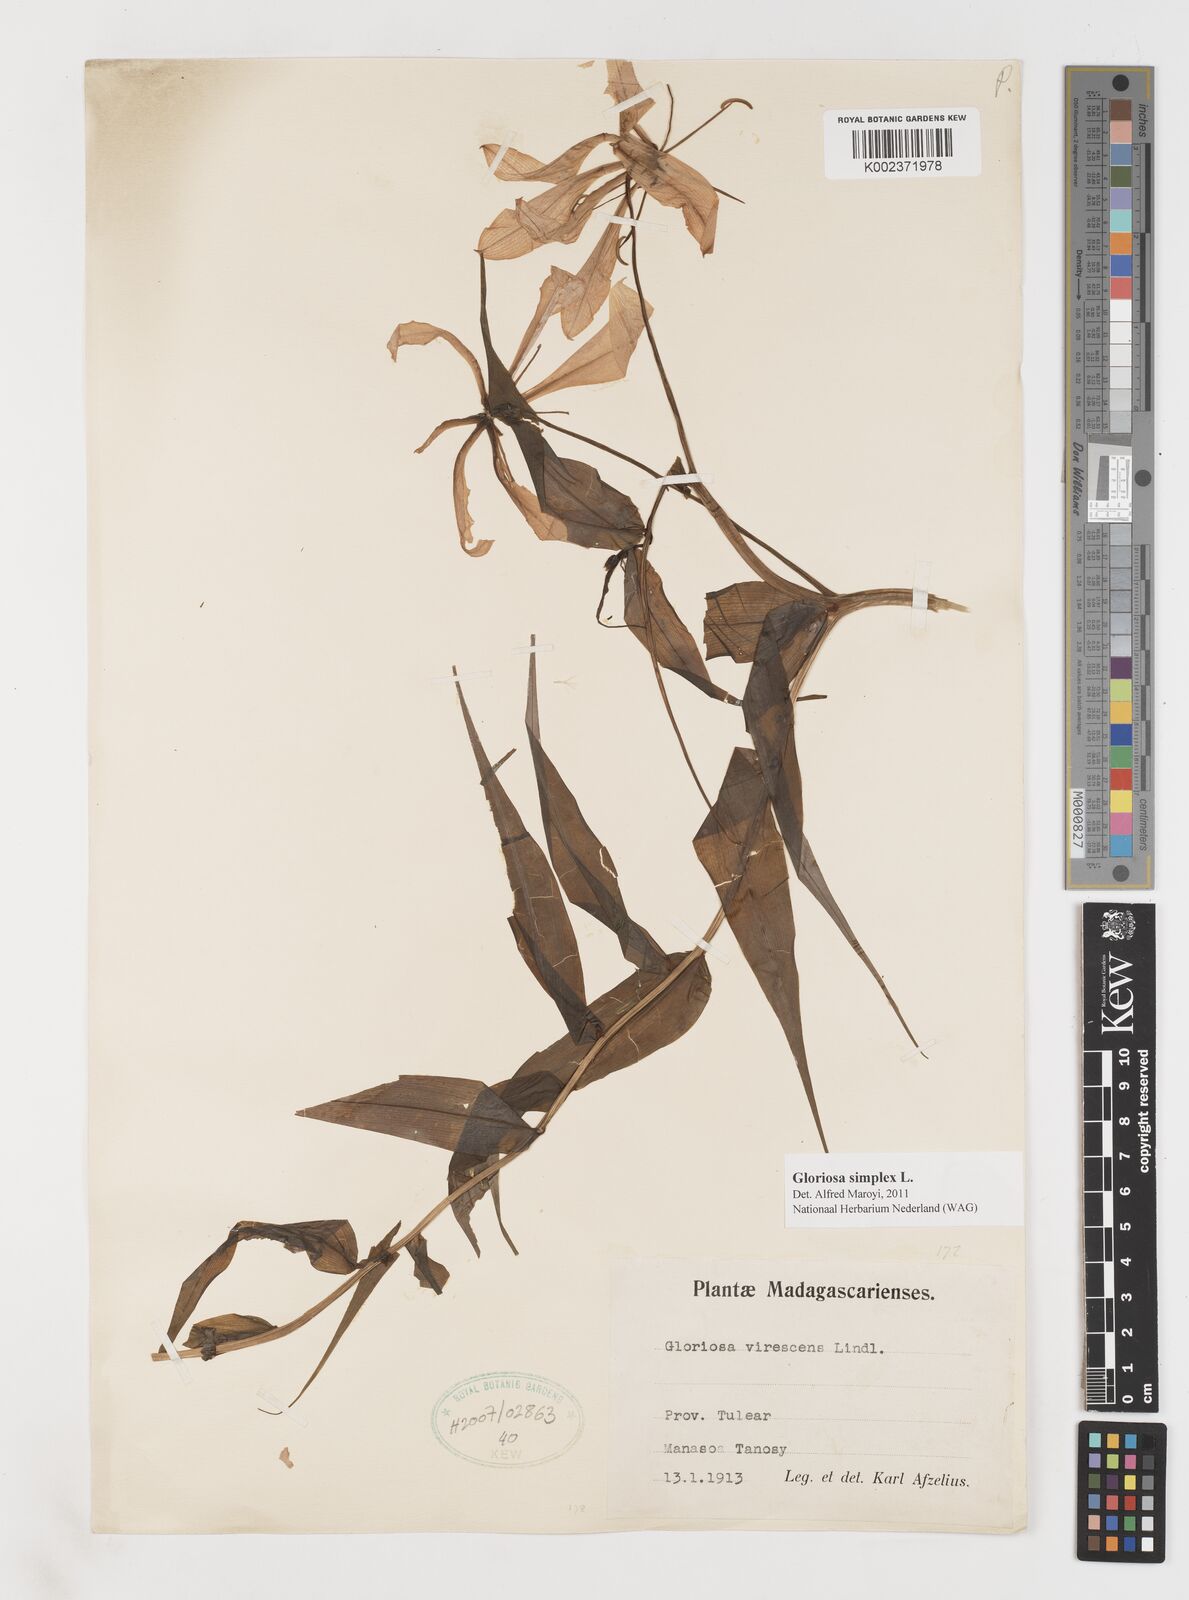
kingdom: Plantae
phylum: Tracheophyta
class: Liliopsida
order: Liliales
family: Colchicaceae
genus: Gloriosa
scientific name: Gloriosa simplex
